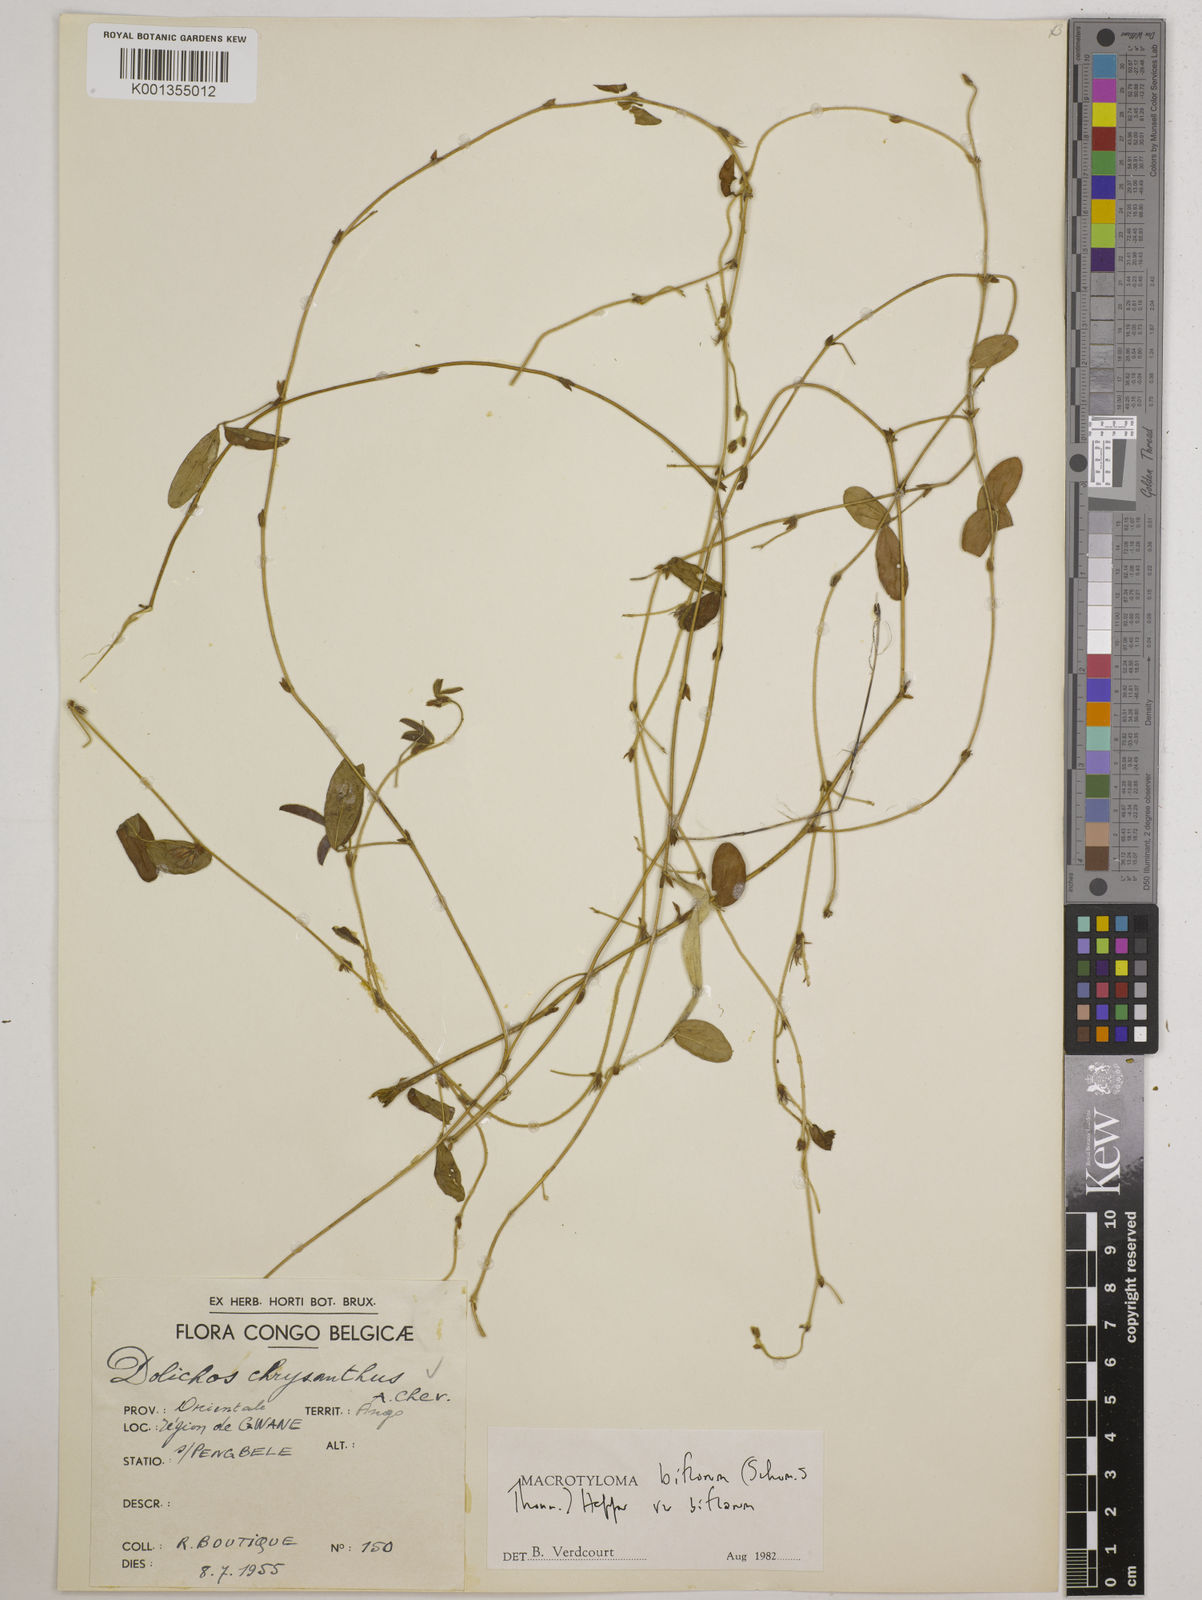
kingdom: Plantae
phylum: Tracheophyta
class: Magnoliopsida
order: Fabales
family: Fabaceae
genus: Macrotyloma
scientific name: Macrotyloma biflorum
